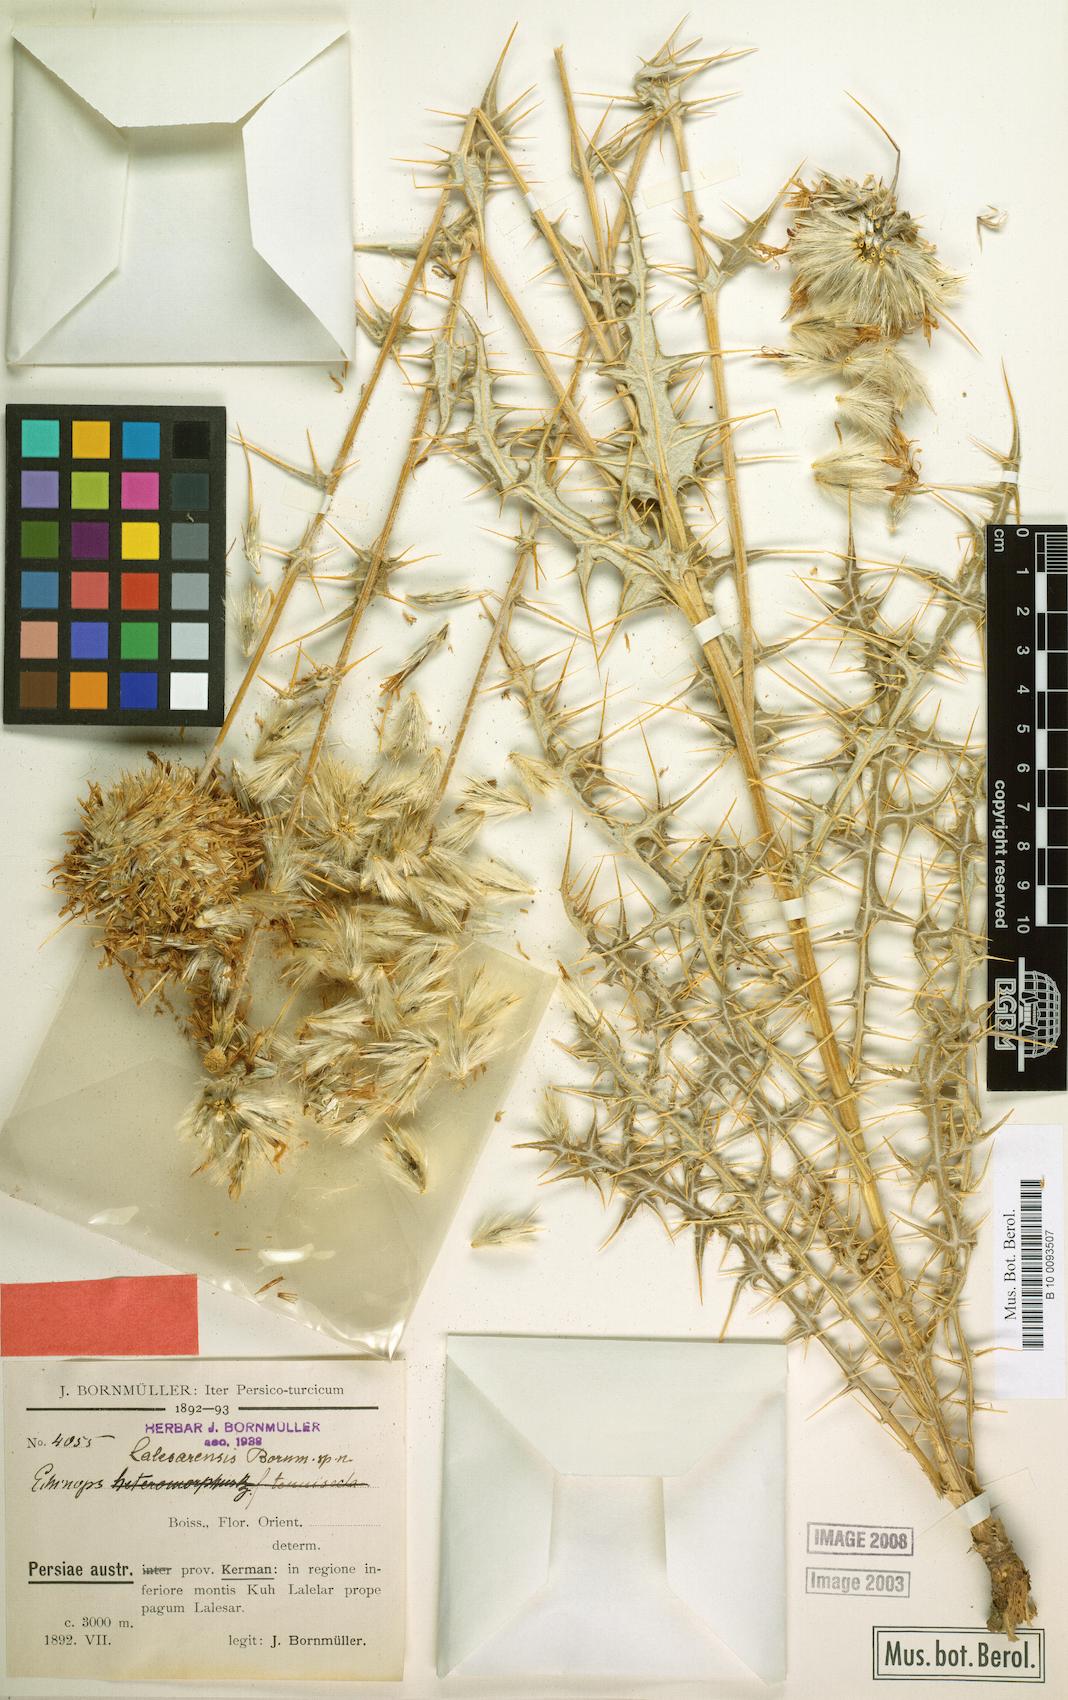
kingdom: Plantae
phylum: Tracheophyta
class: Magnoliopsida
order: Asterales
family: Asteraceae
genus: Echinops
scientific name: Echinops lalesarensis
